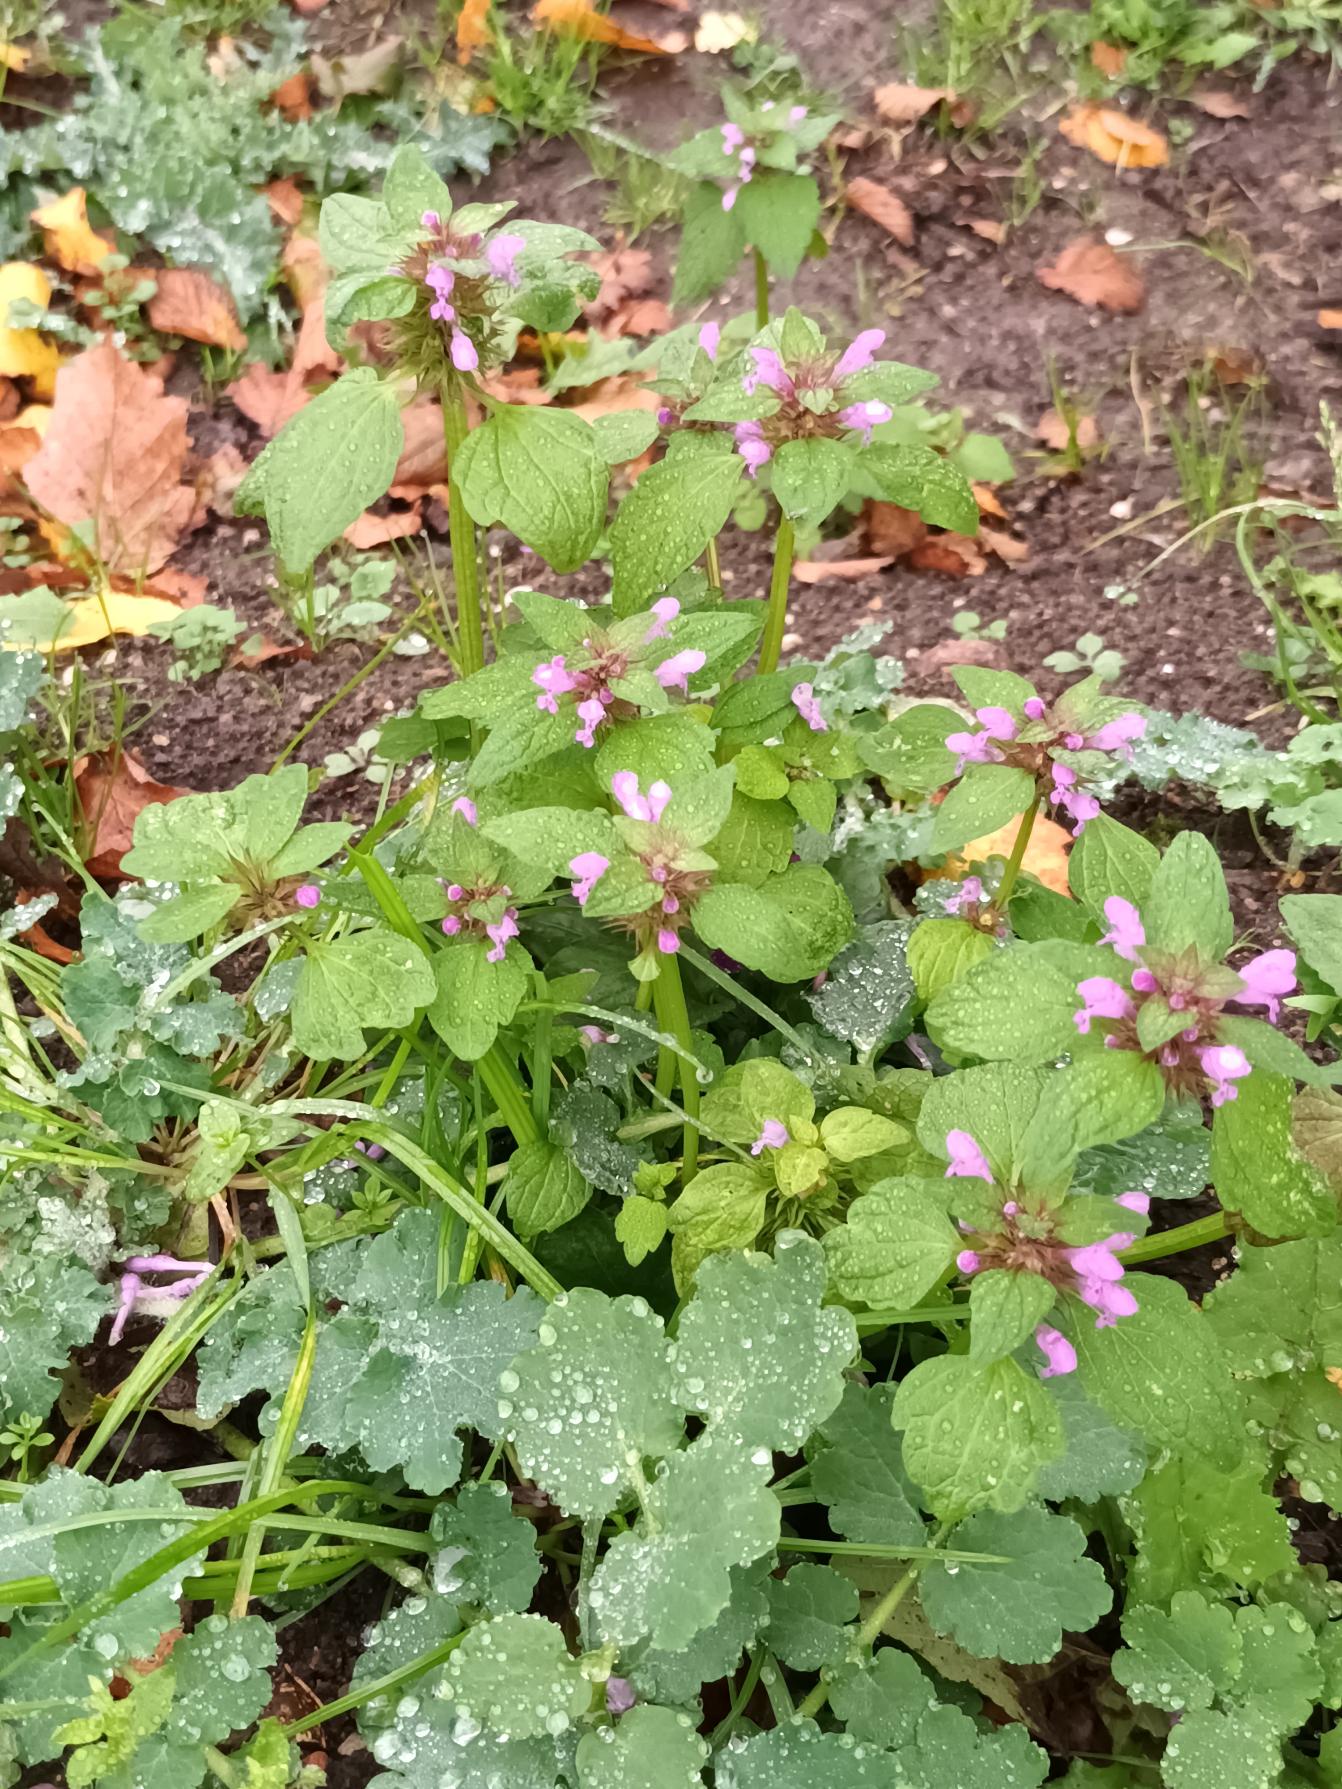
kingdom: Plantae
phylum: Tracheophyta
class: Magnoliopsida
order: Lamiales
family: Lamiaceae
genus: Lamium
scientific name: Lamium purpureum
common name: Rød tvetand
